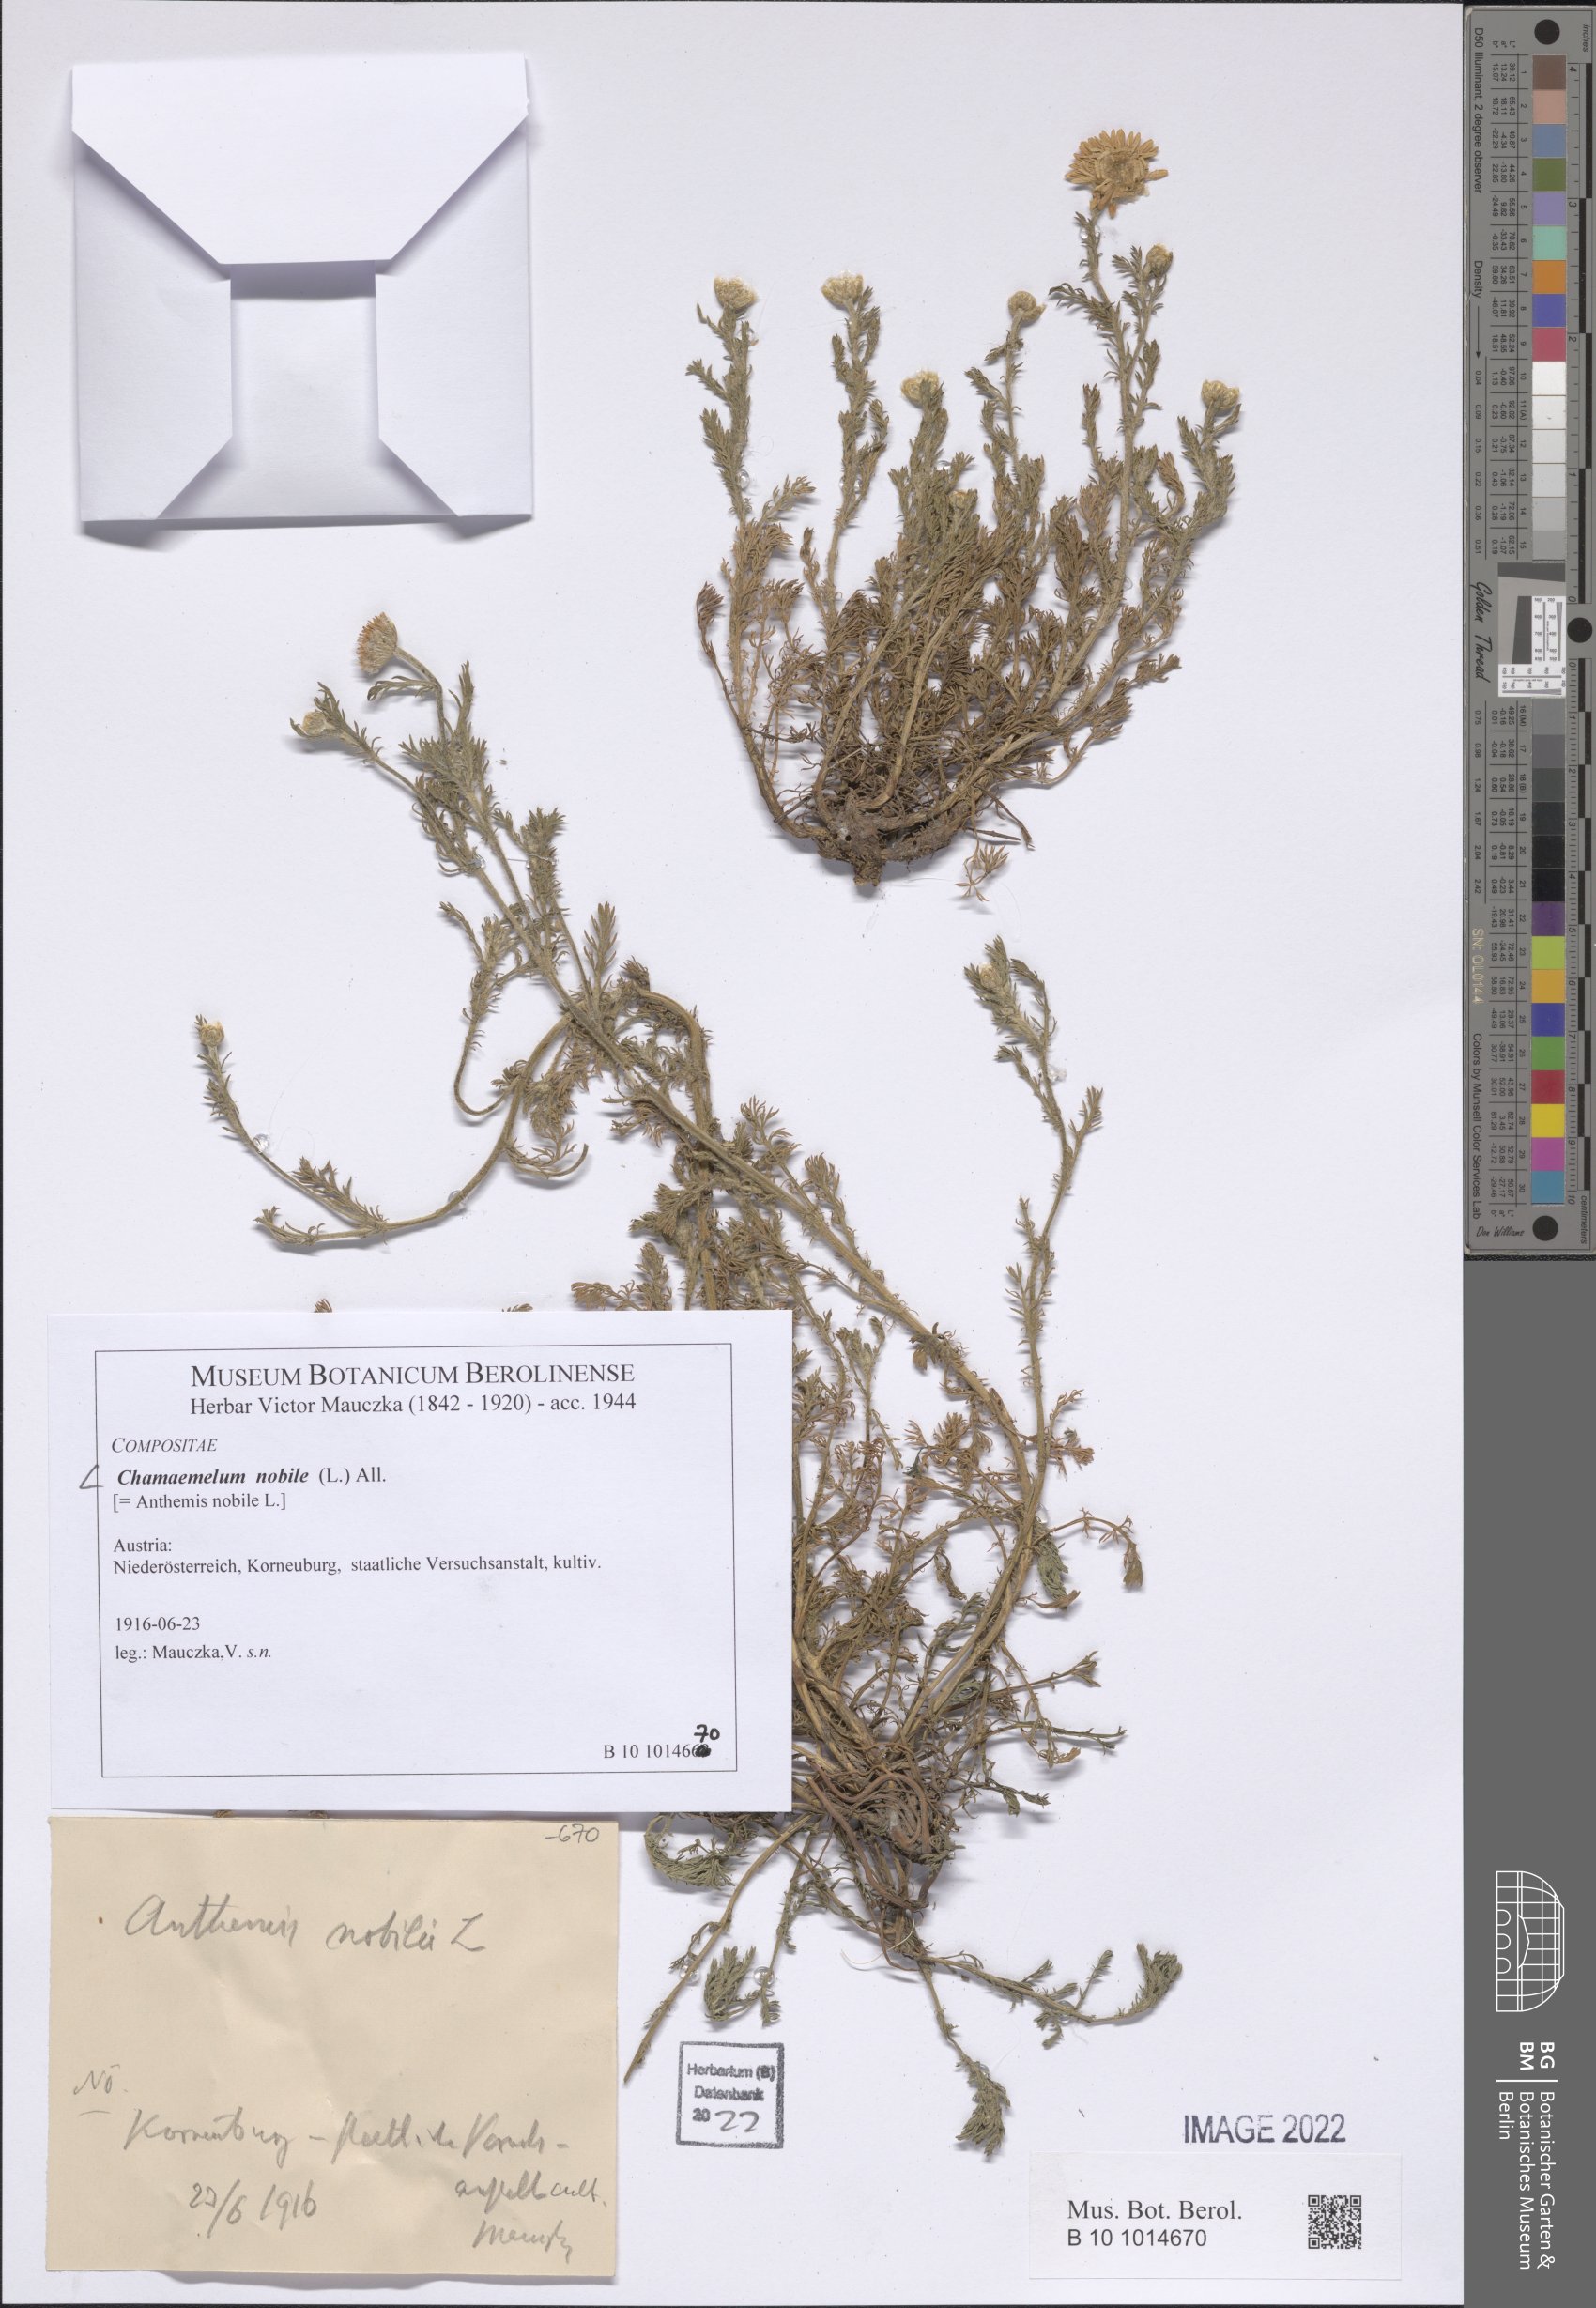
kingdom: Plantae
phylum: Tracheophyta
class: Magnoliopsida
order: Asterales
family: Asteraceae
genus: Chamaemelum
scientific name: Chamaemelum nobile
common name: Roman chamomile
